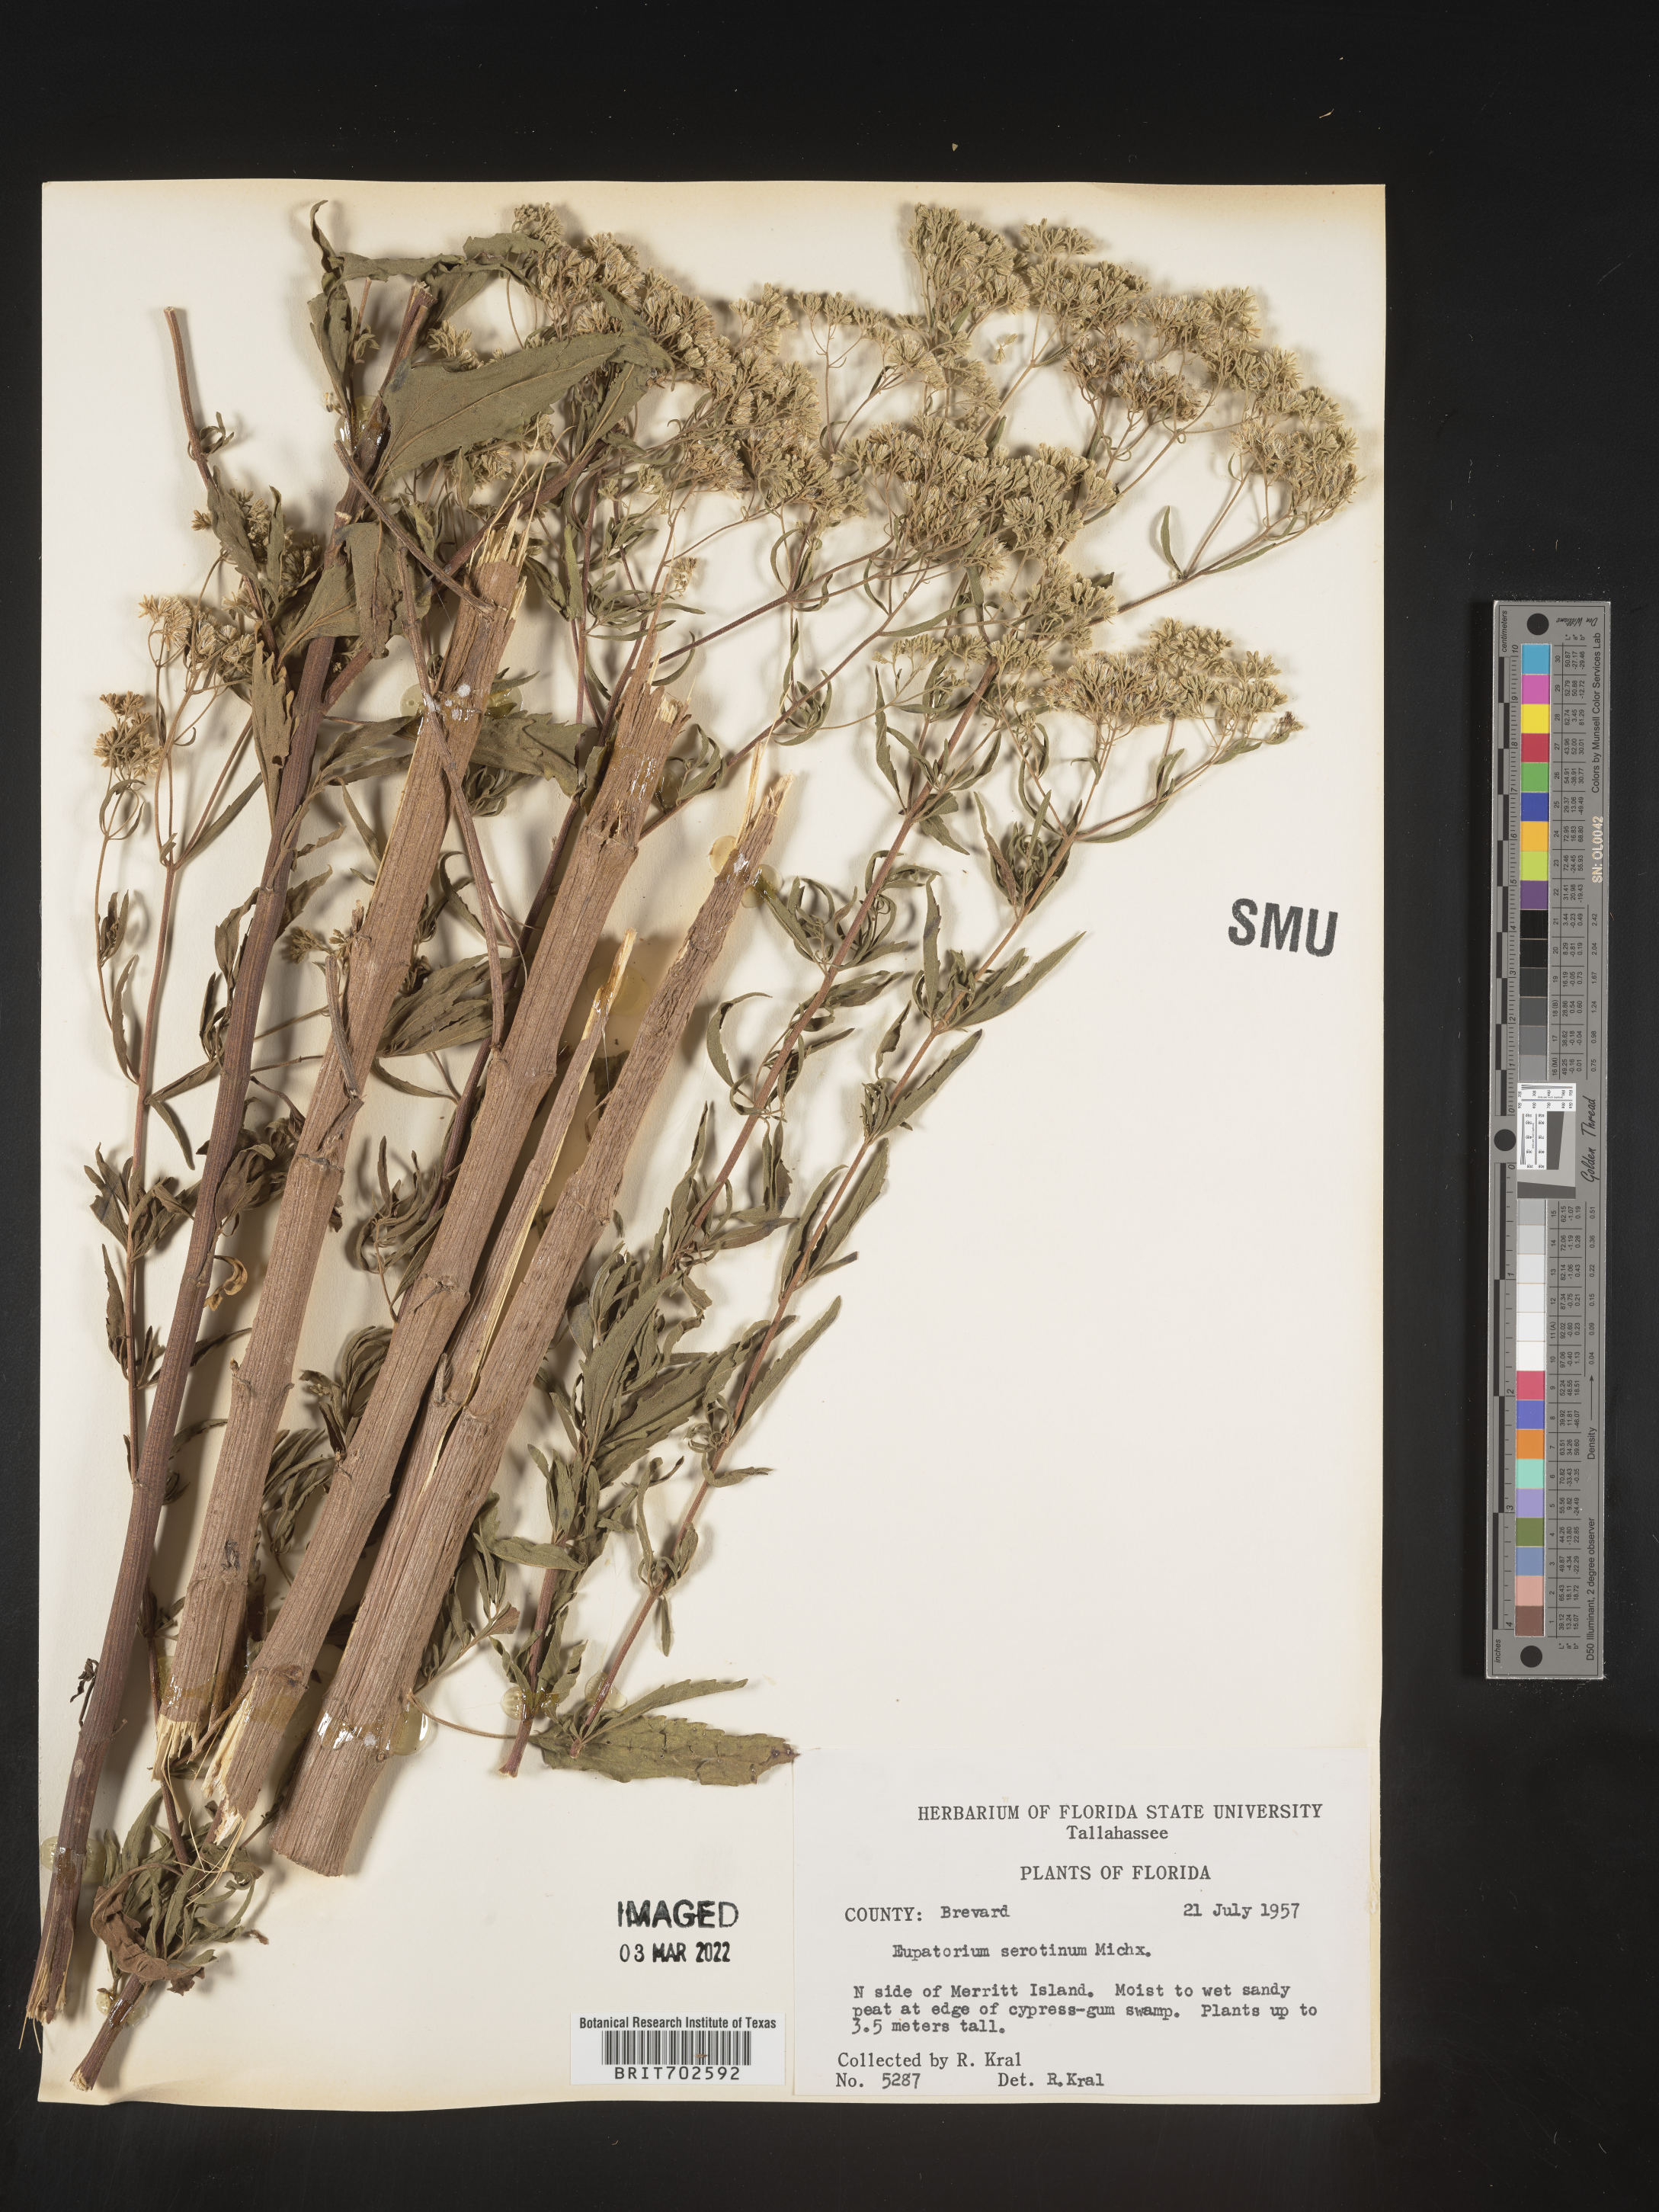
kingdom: Plantae
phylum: Tracheophyta
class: Magnoliopsida
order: Asterales
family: Asteraceae
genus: Eupatorium
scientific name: Eupatorium serotinum
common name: Late boneset
